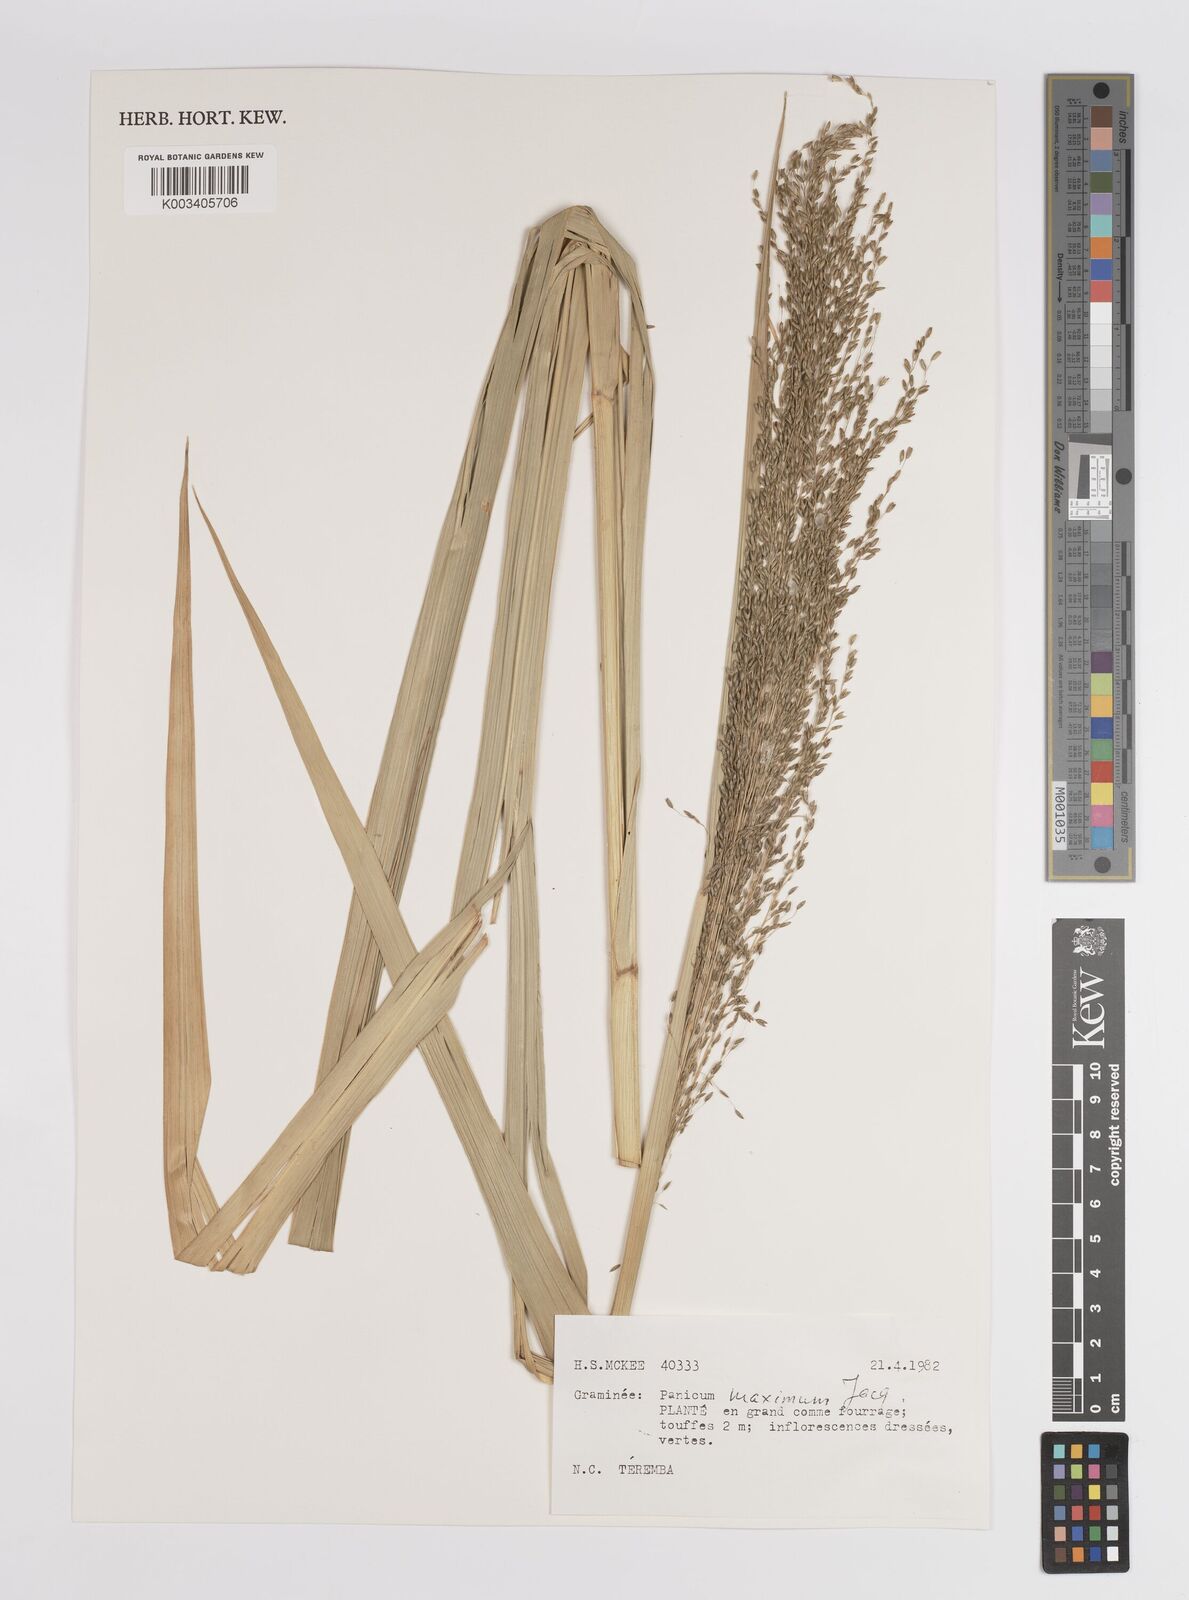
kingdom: Plantae
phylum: Tracheophyta
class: Liliopsida
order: Poales
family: Poaceae
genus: Megathyrsus
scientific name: Megathyrsus maximus
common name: Guineagrass
